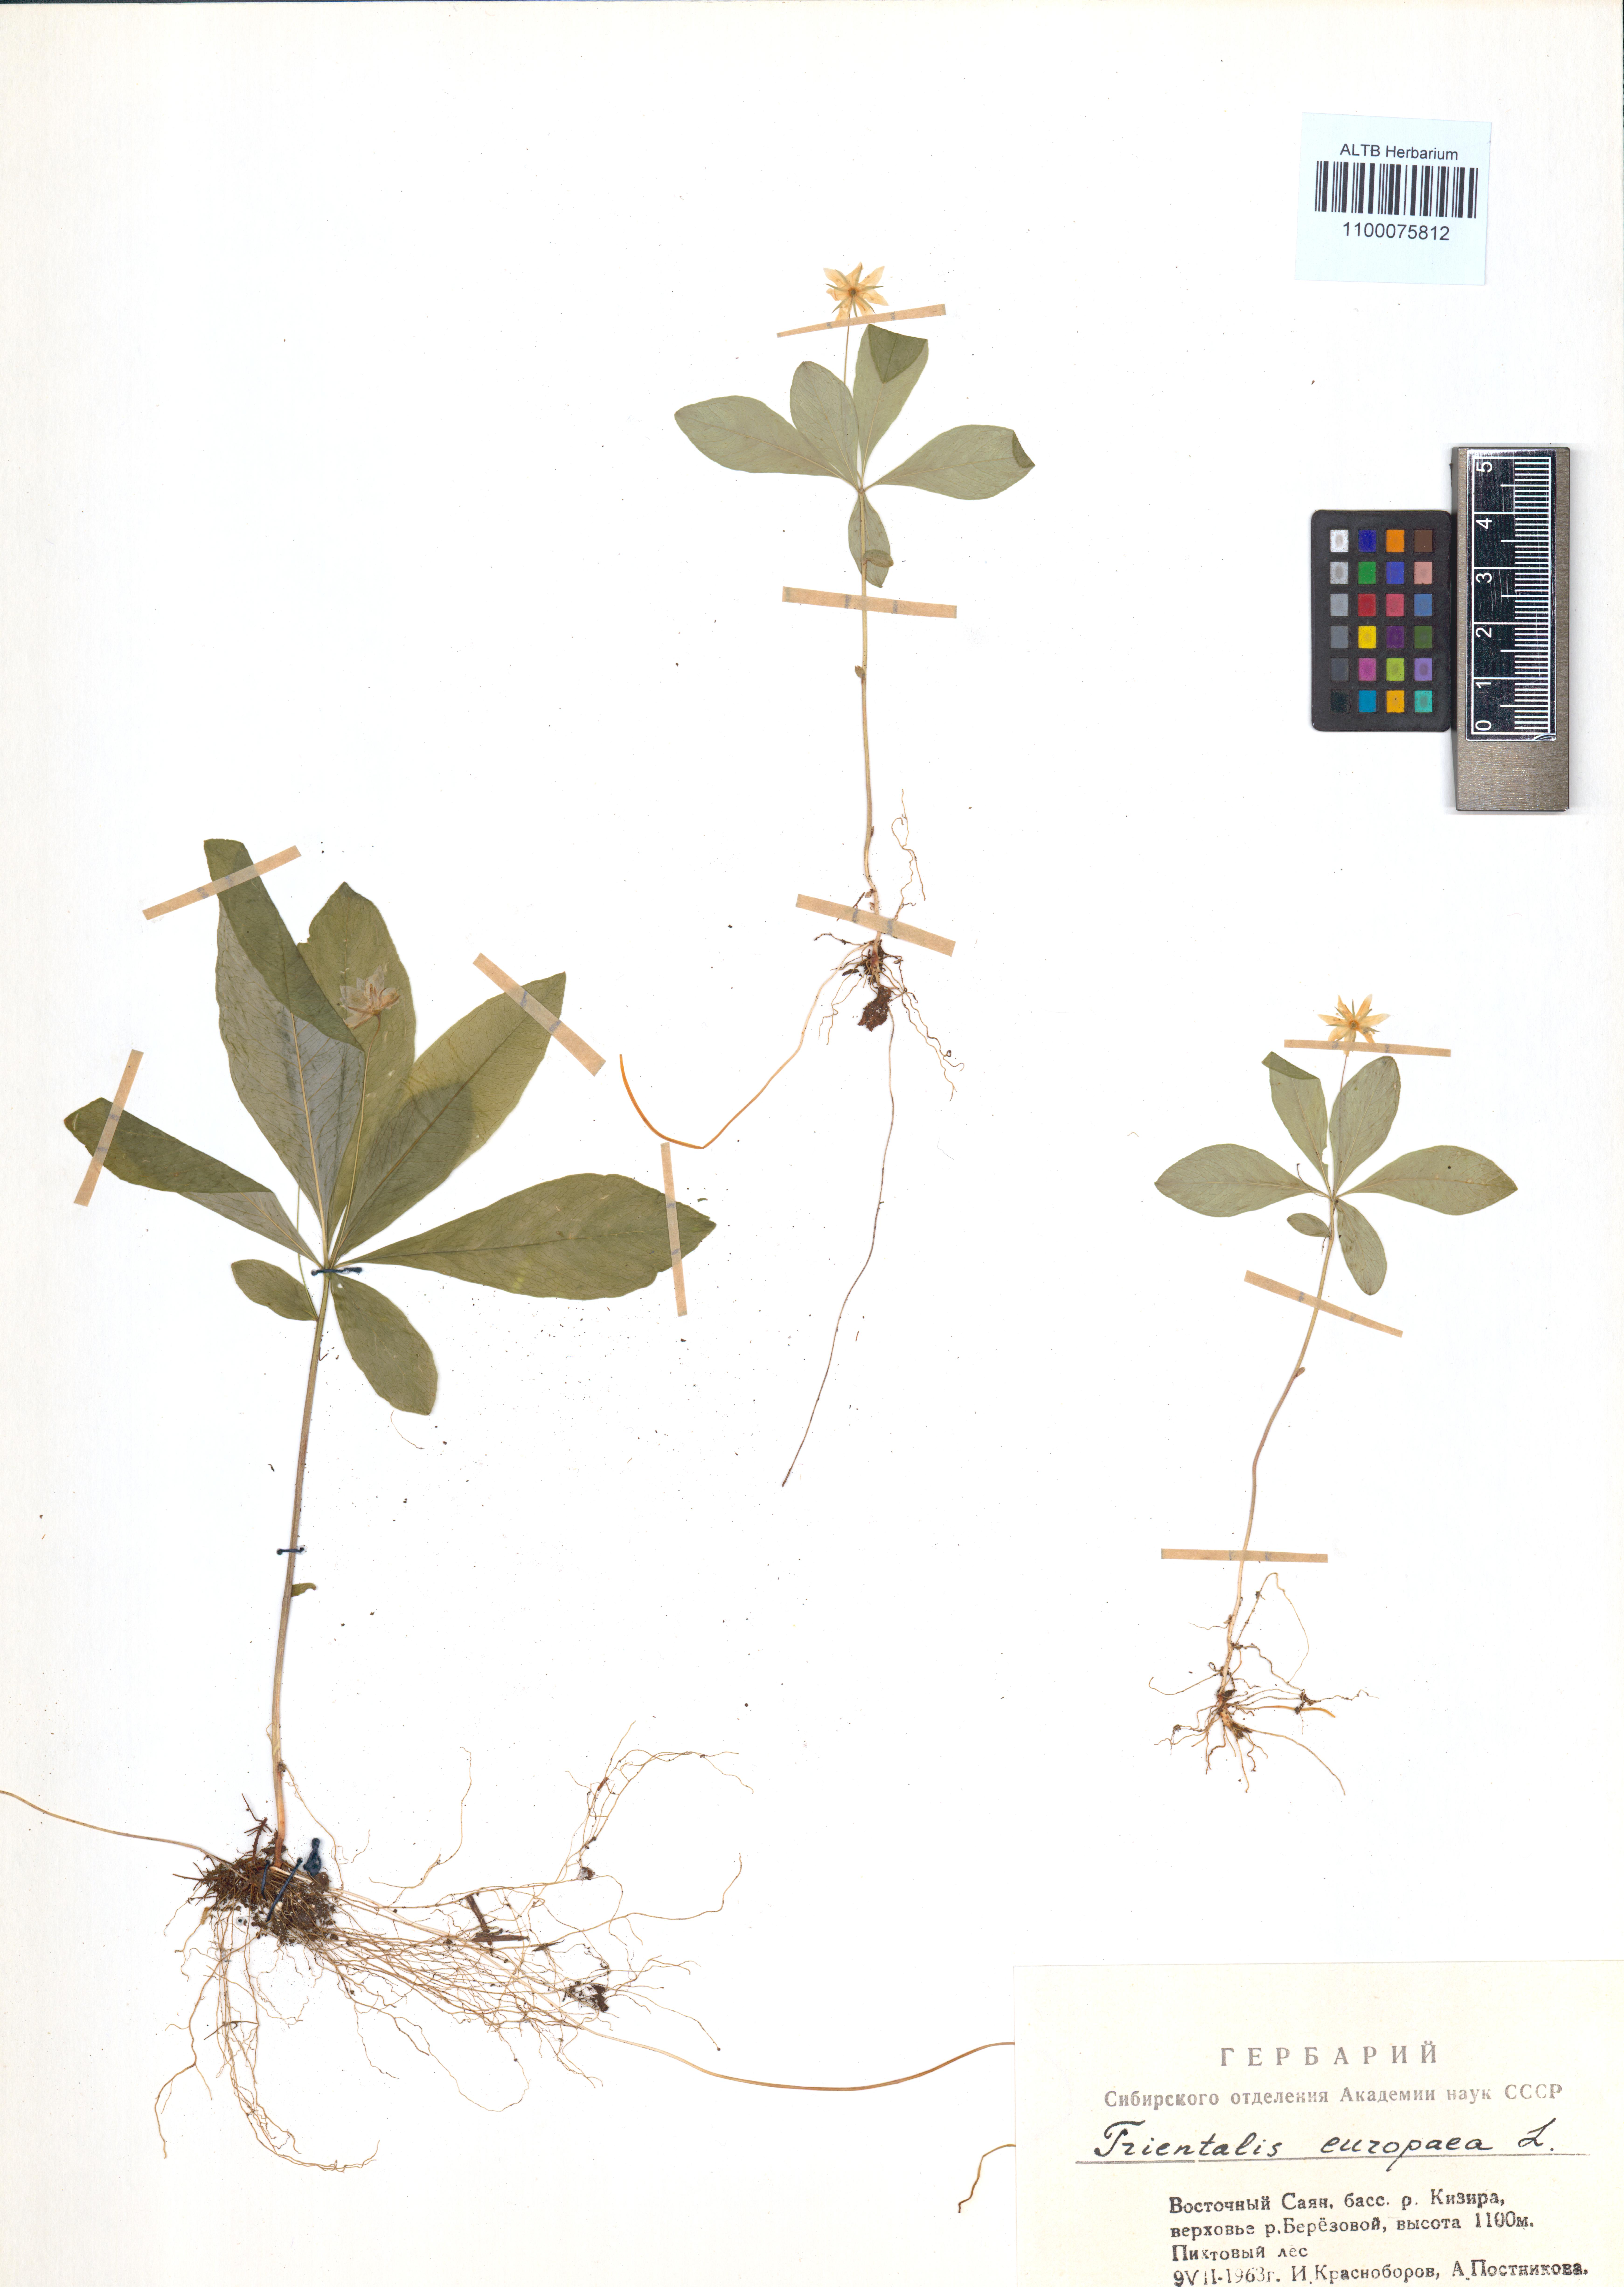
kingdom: Plantae
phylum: Tracheophyta
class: Magnoliopsida
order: Ericales
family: Primulaceae
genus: Lysimachia
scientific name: Lysimachia europaea
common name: Arctic starflower
